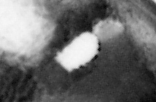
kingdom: Animalia
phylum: Chordata
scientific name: Chordata
